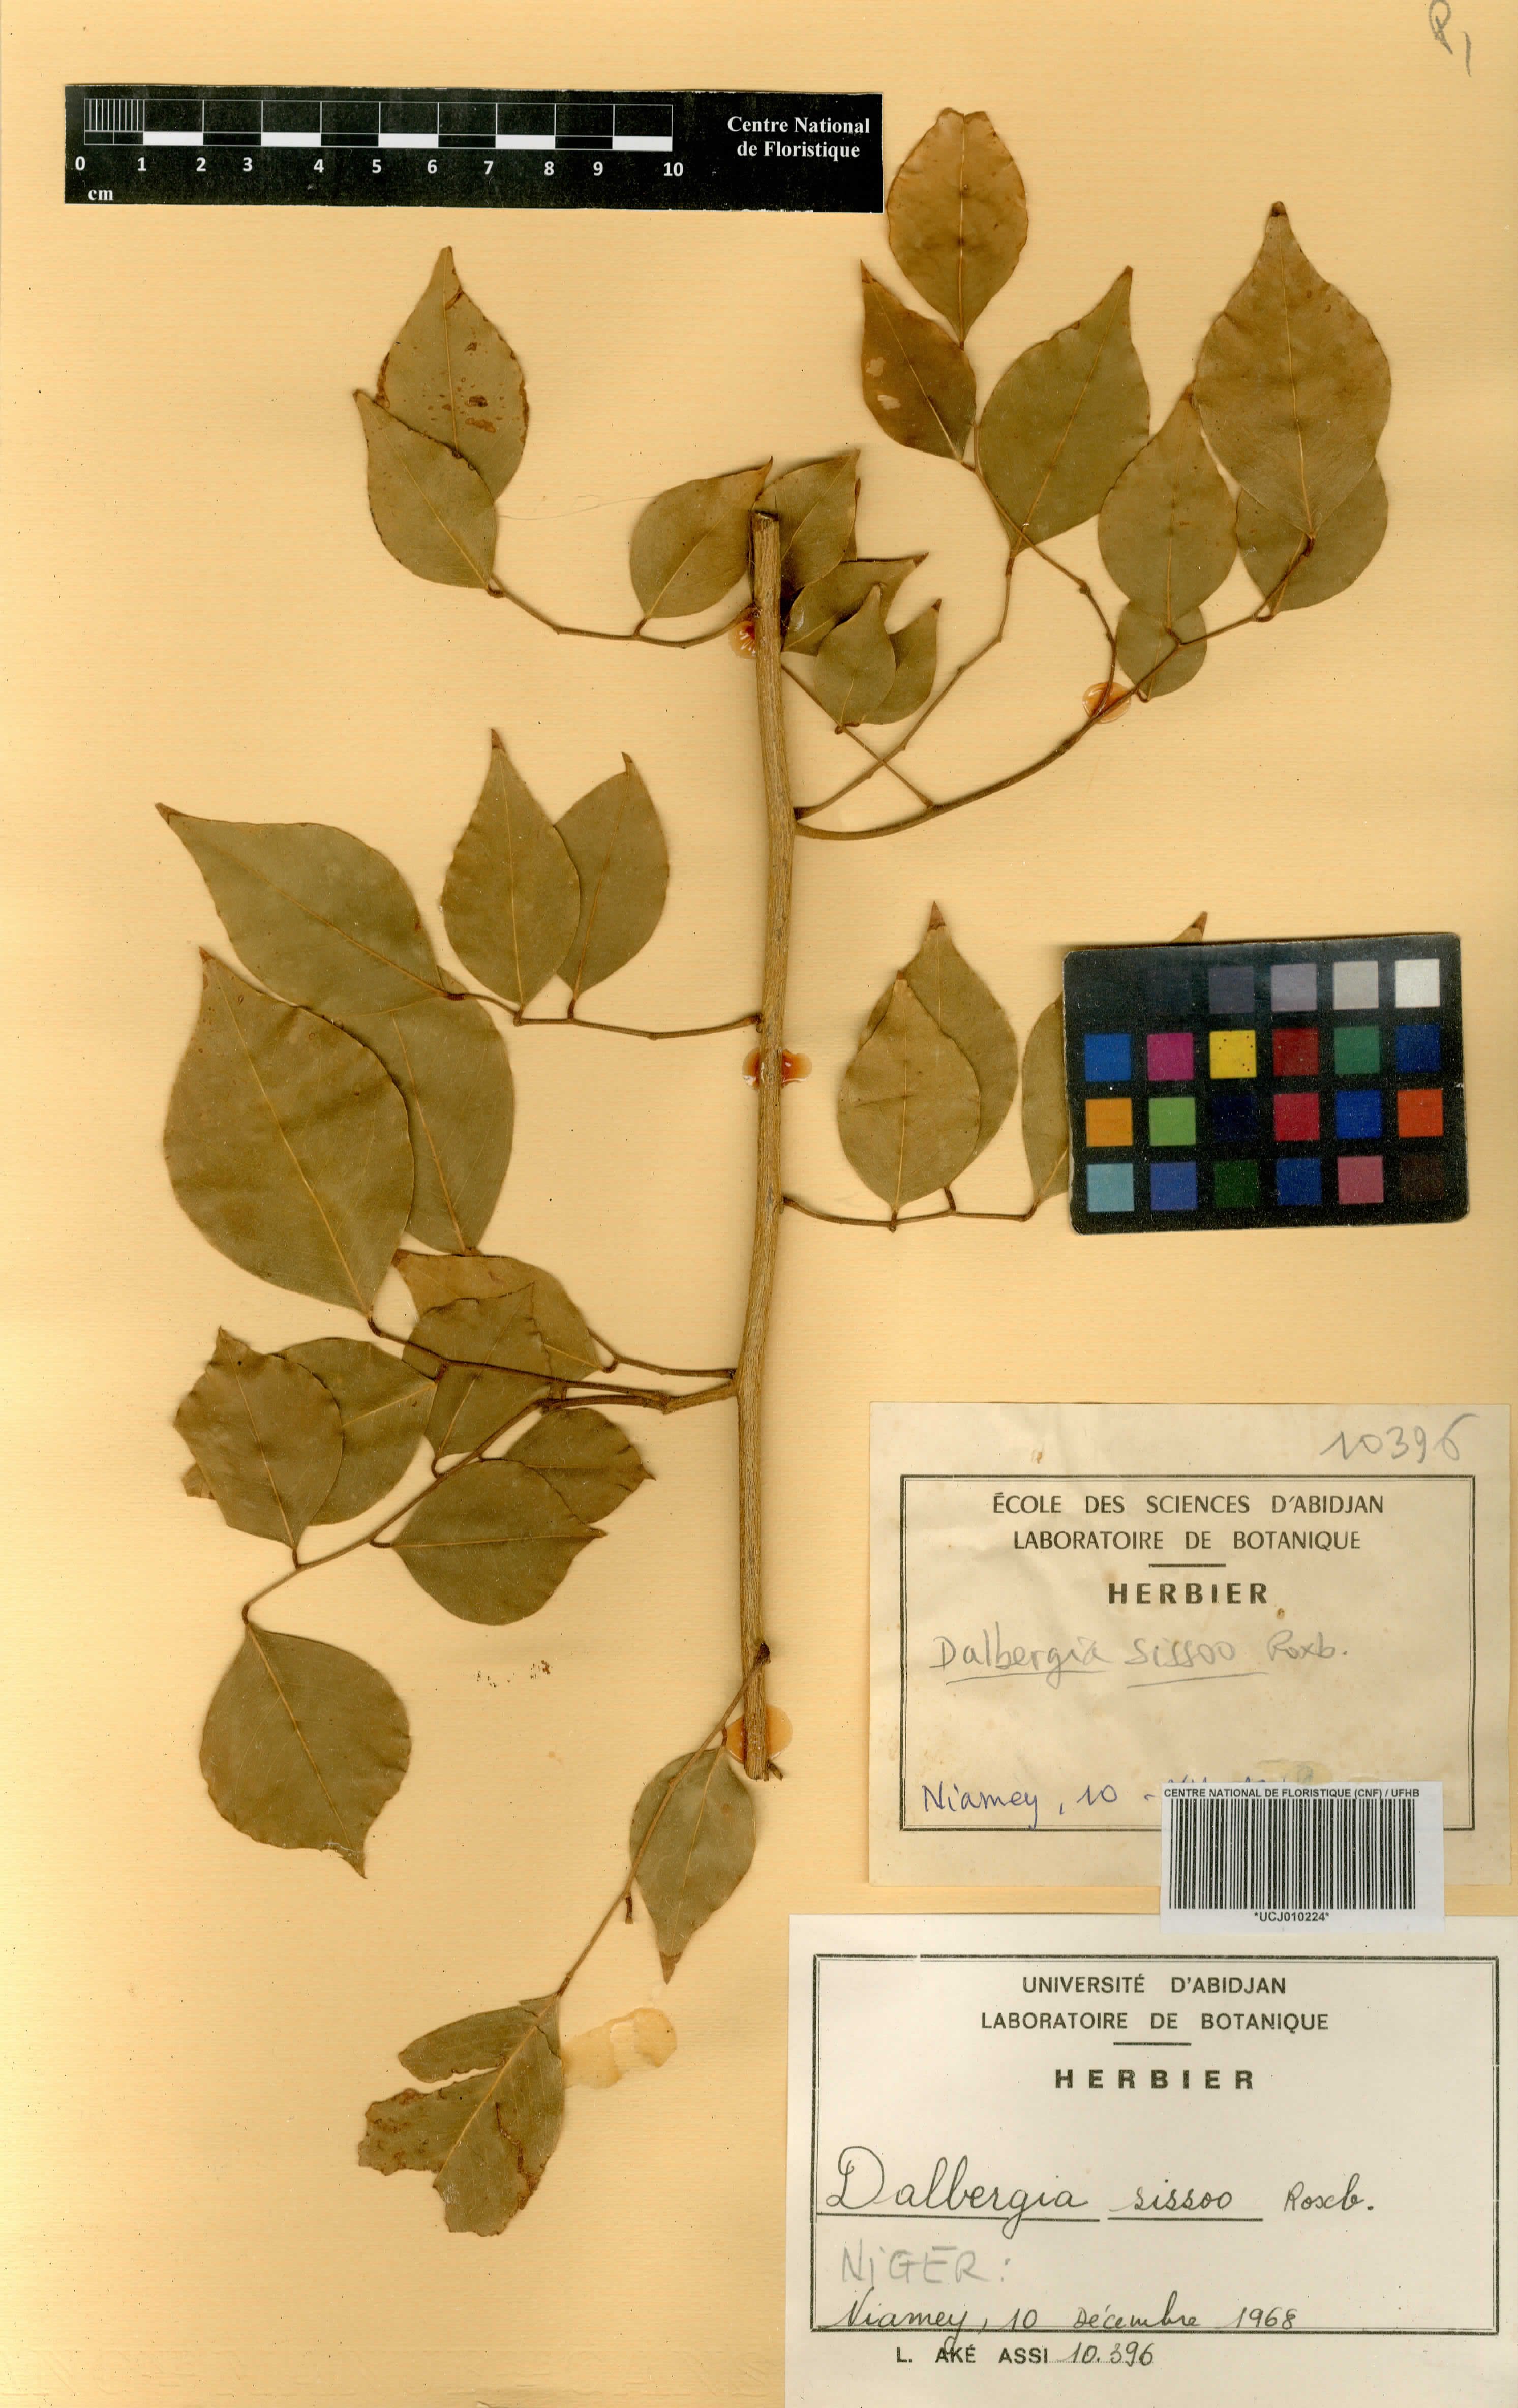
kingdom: Plantae
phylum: Tracheophyta
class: Magnoliopsida
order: Fabales
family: Fabaceae
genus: Dalbergia
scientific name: Dalbergia sissoo
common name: Indian rosewood
